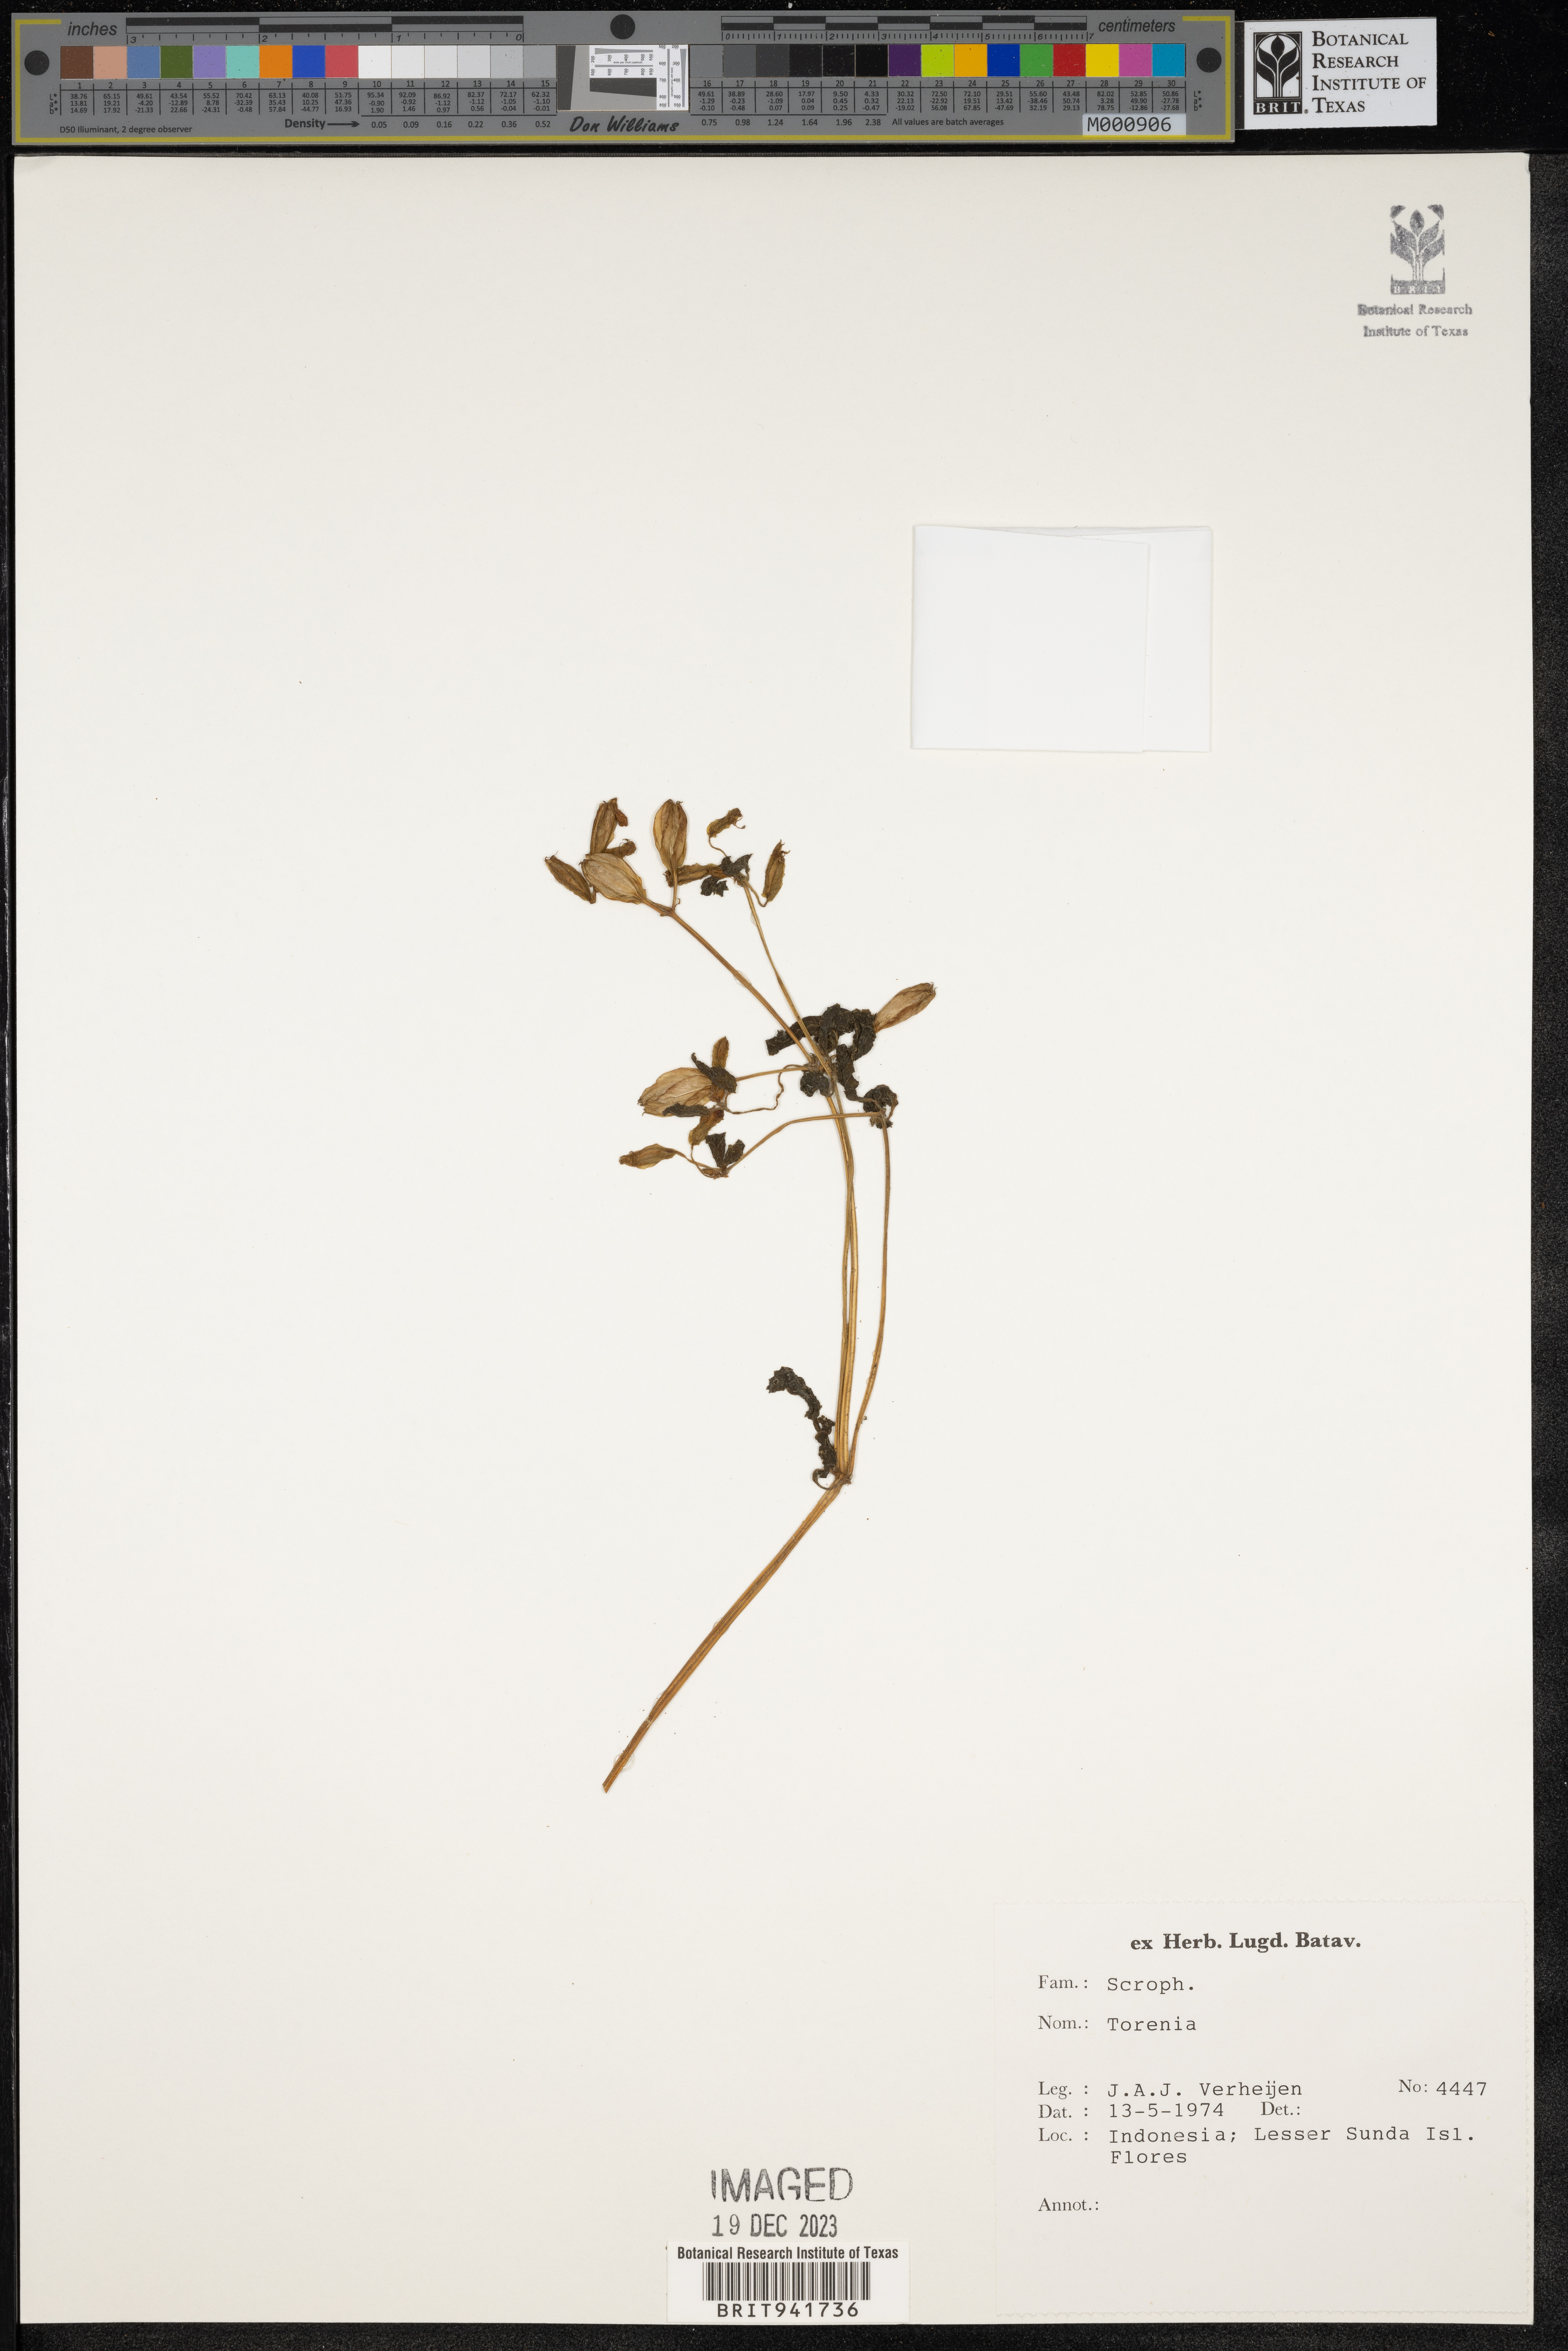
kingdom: Plantae
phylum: Tracheophyta
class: Magnoliopsida
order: Lamiales
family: Linderniaceae
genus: Torenia
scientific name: Torenia
